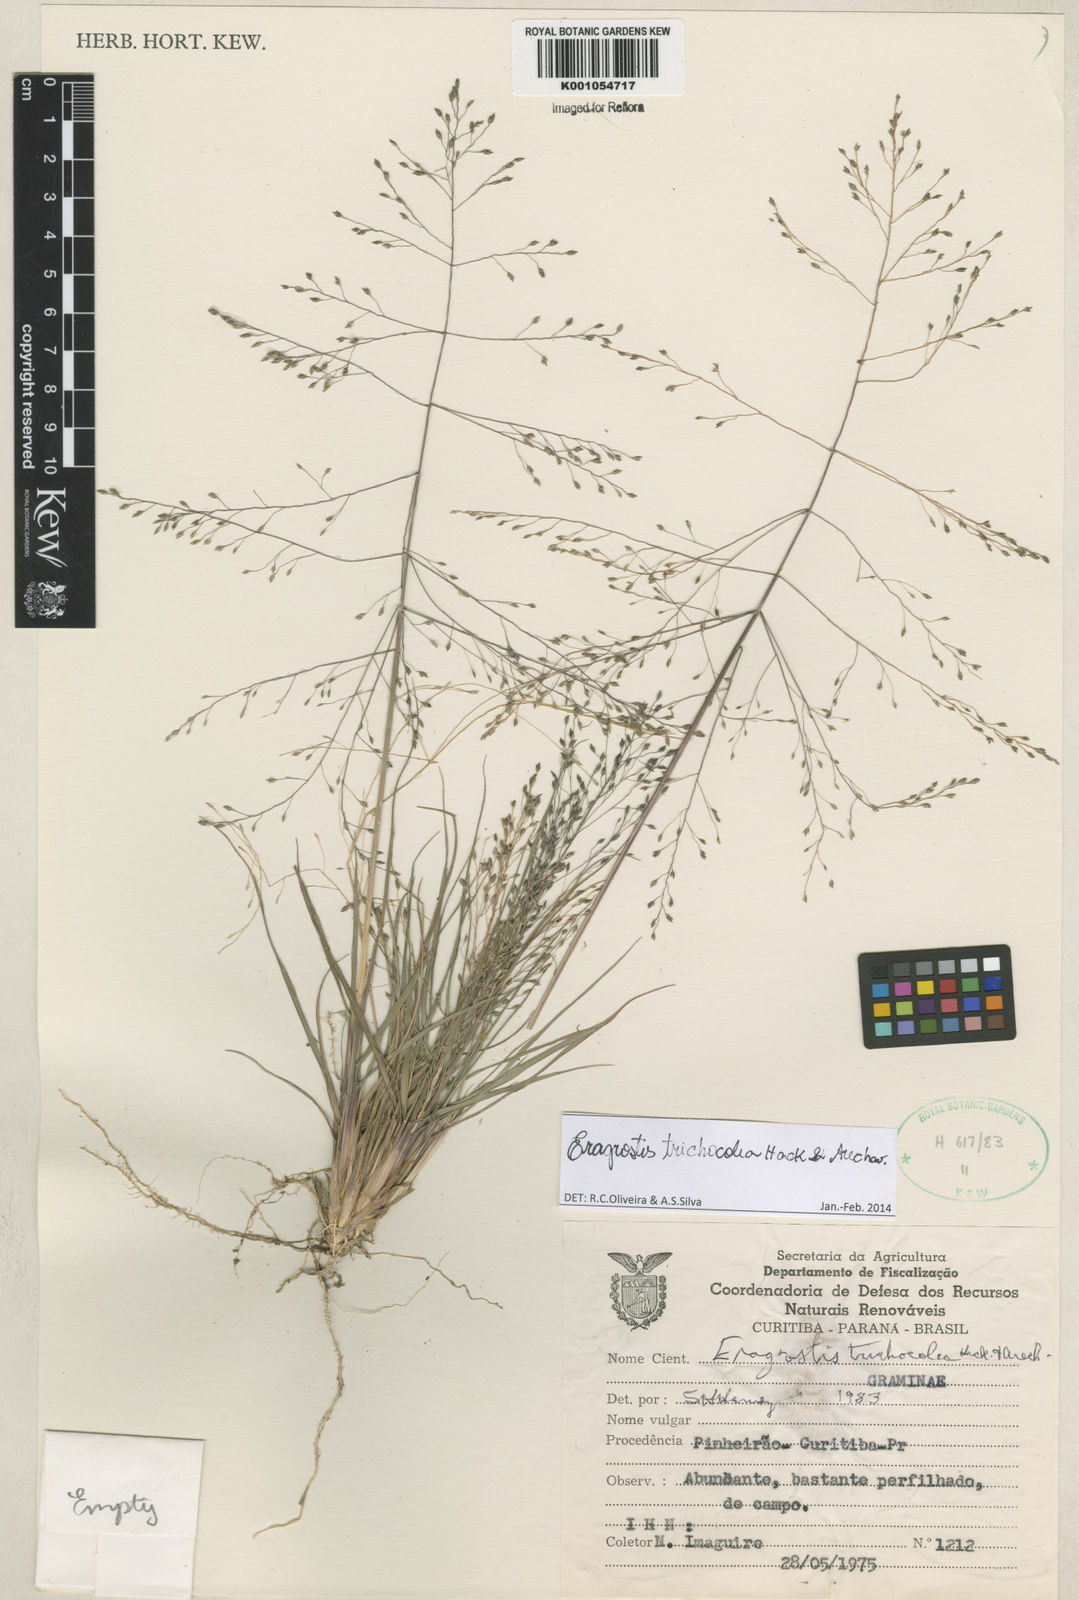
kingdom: Plantae
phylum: Tracheophyta
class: Liliopsida
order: Poales
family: Poaceae
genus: Eragrostis
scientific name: Eragrostis trichocolea
